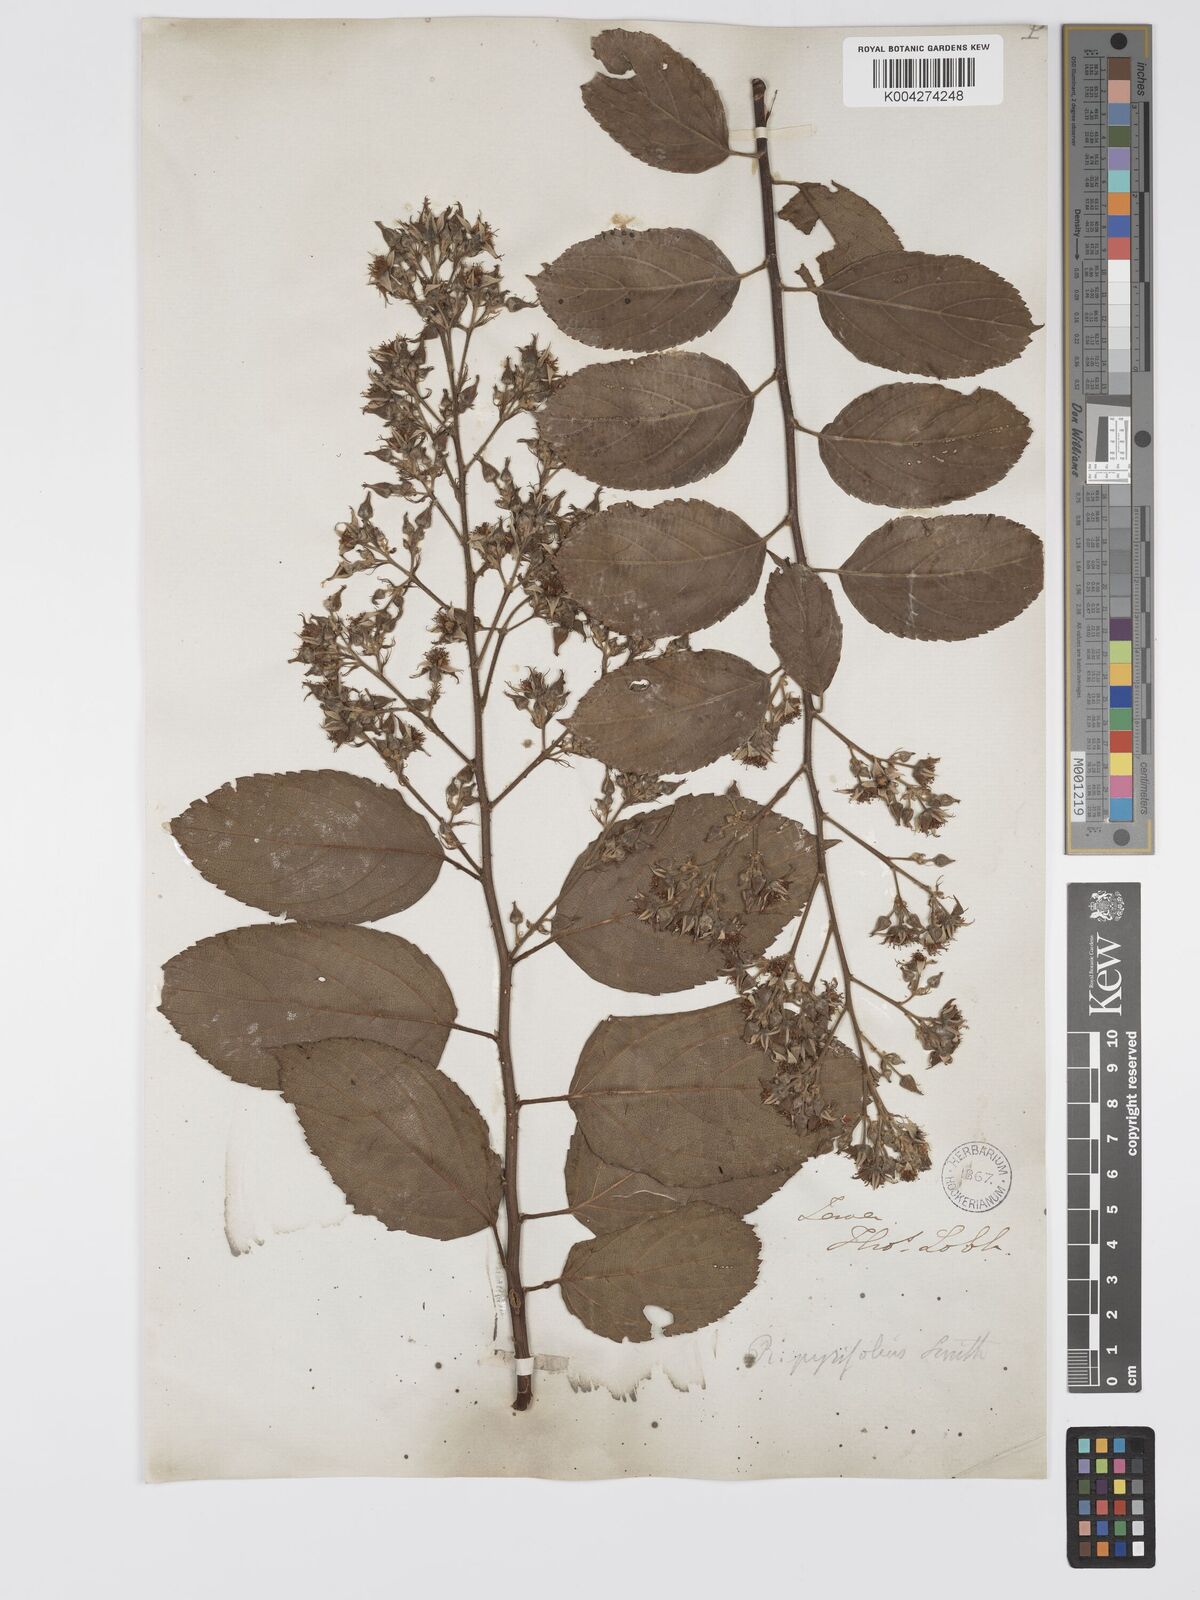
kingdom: Plantae
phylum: Tracheophyta
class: Magnoliopsida
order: Rosales
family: Rosaceae
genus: Rubus
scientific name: Rubus pirifolius
